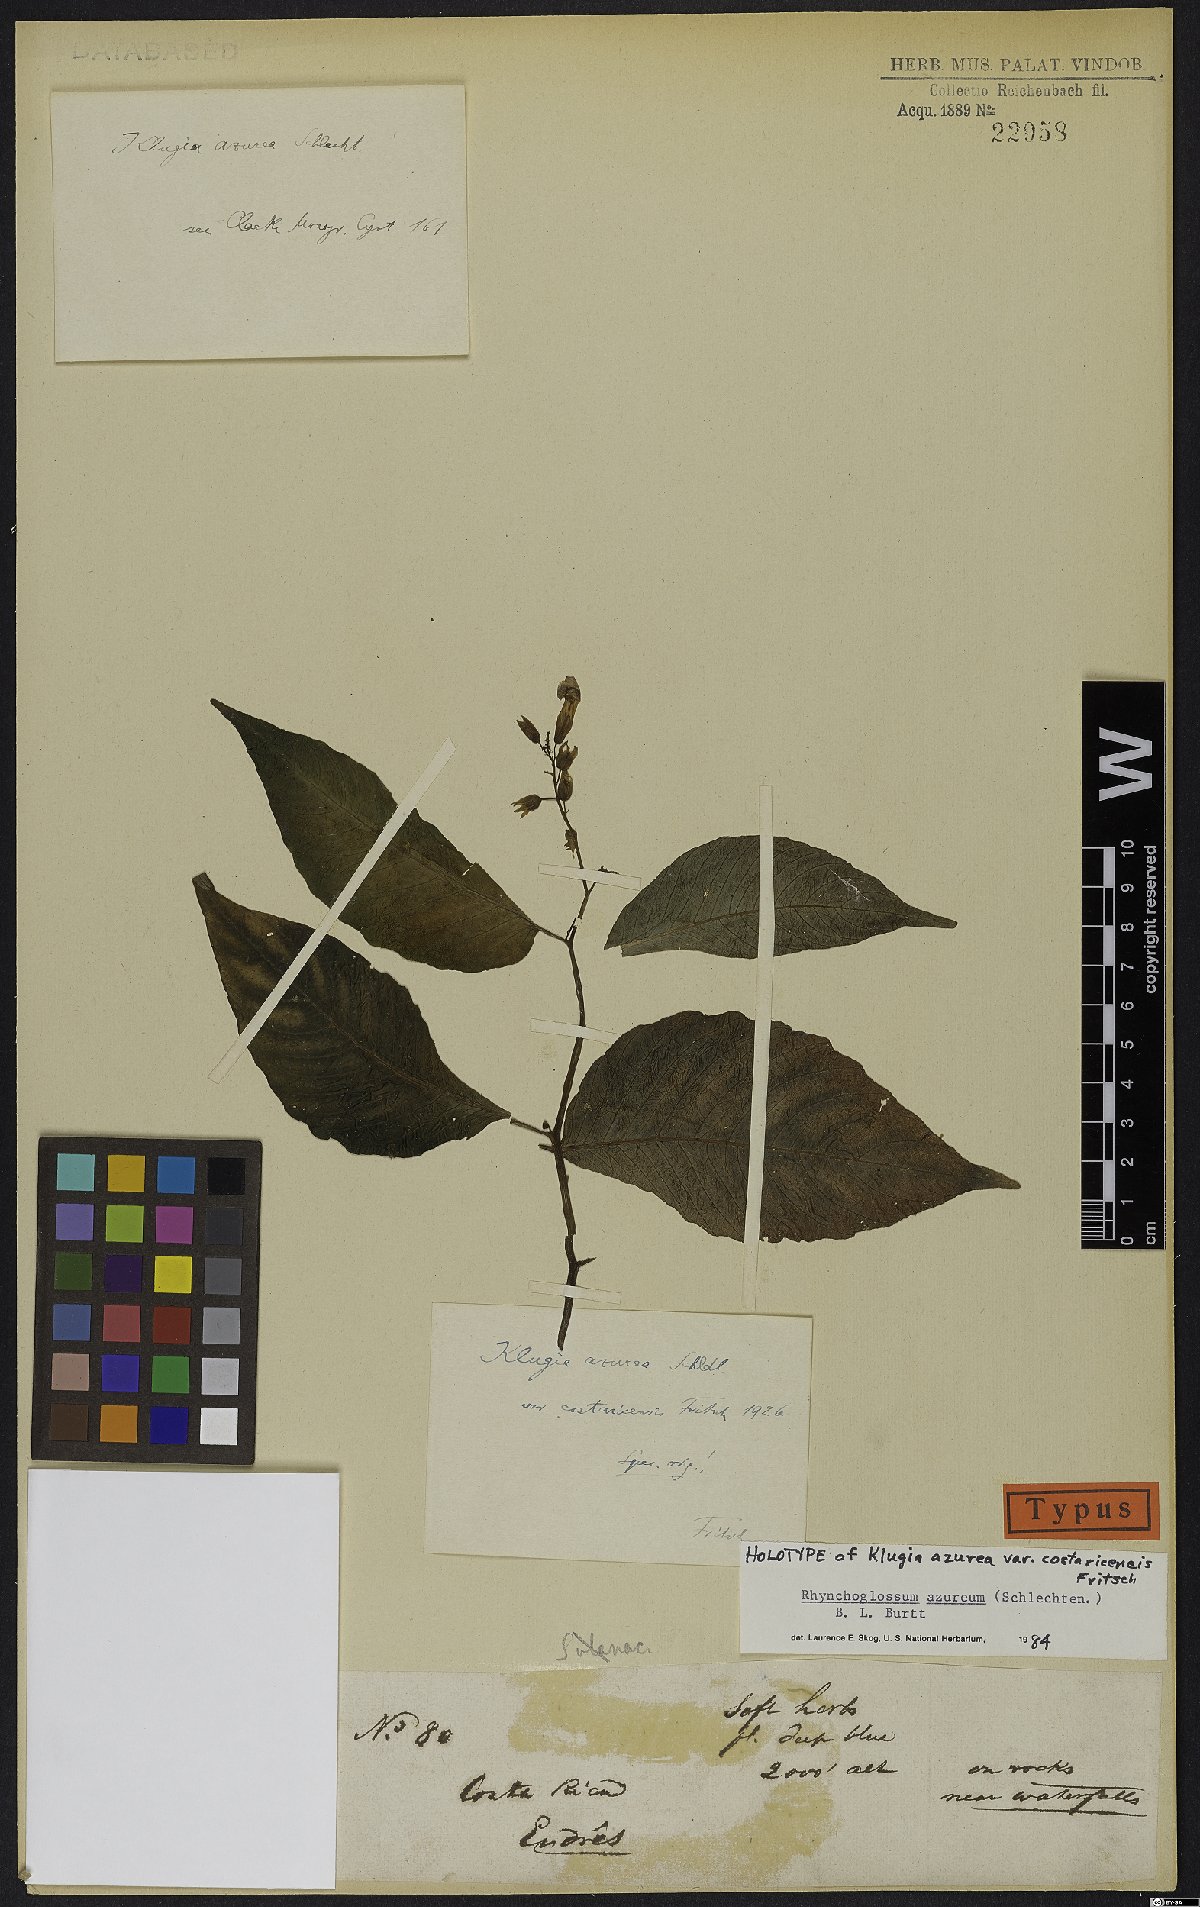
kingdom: Plantae
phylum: Tracheophyta
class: Magnoliopsida
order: Lamiales
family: Gesneriaceae
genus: Rhynchoglossum
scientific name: Rhynchoglossum azureum
